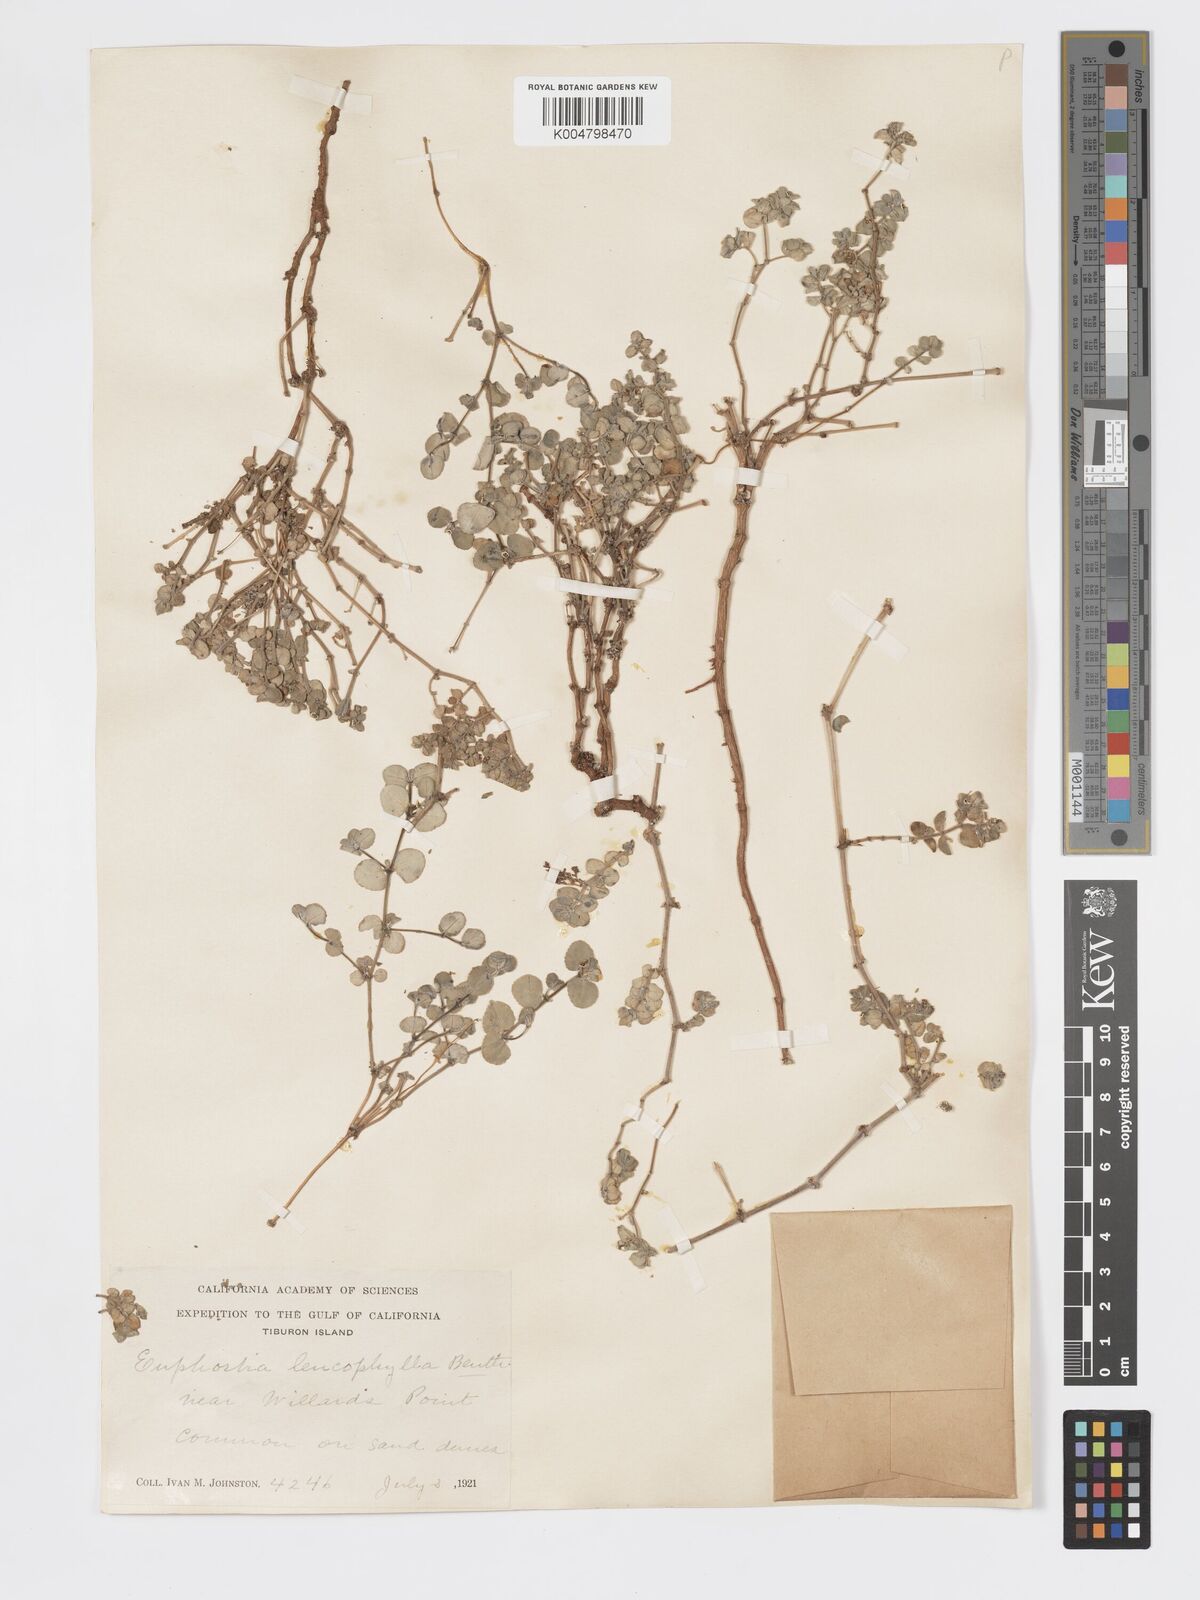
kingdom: Plantae
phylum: Tracheophyta
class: Magnoliopsida
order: Malpighiales
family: Euphorbiaceae
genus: Euphorbia
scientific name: Euphorbia leucophylla
